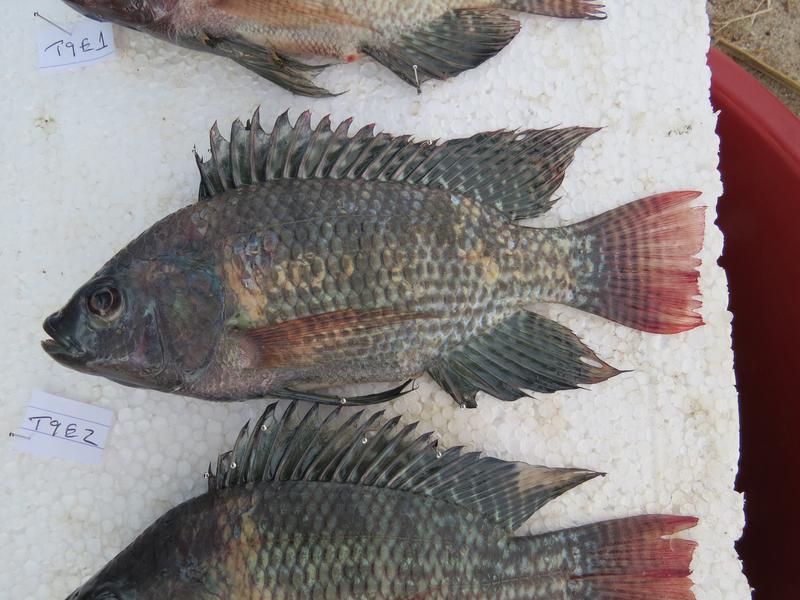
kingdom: Animalia
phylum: Chordata
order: Perciformes
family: Cichlidae
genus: Oreochromis
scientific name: Oreochromis niloticus
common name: Nile tilapia
